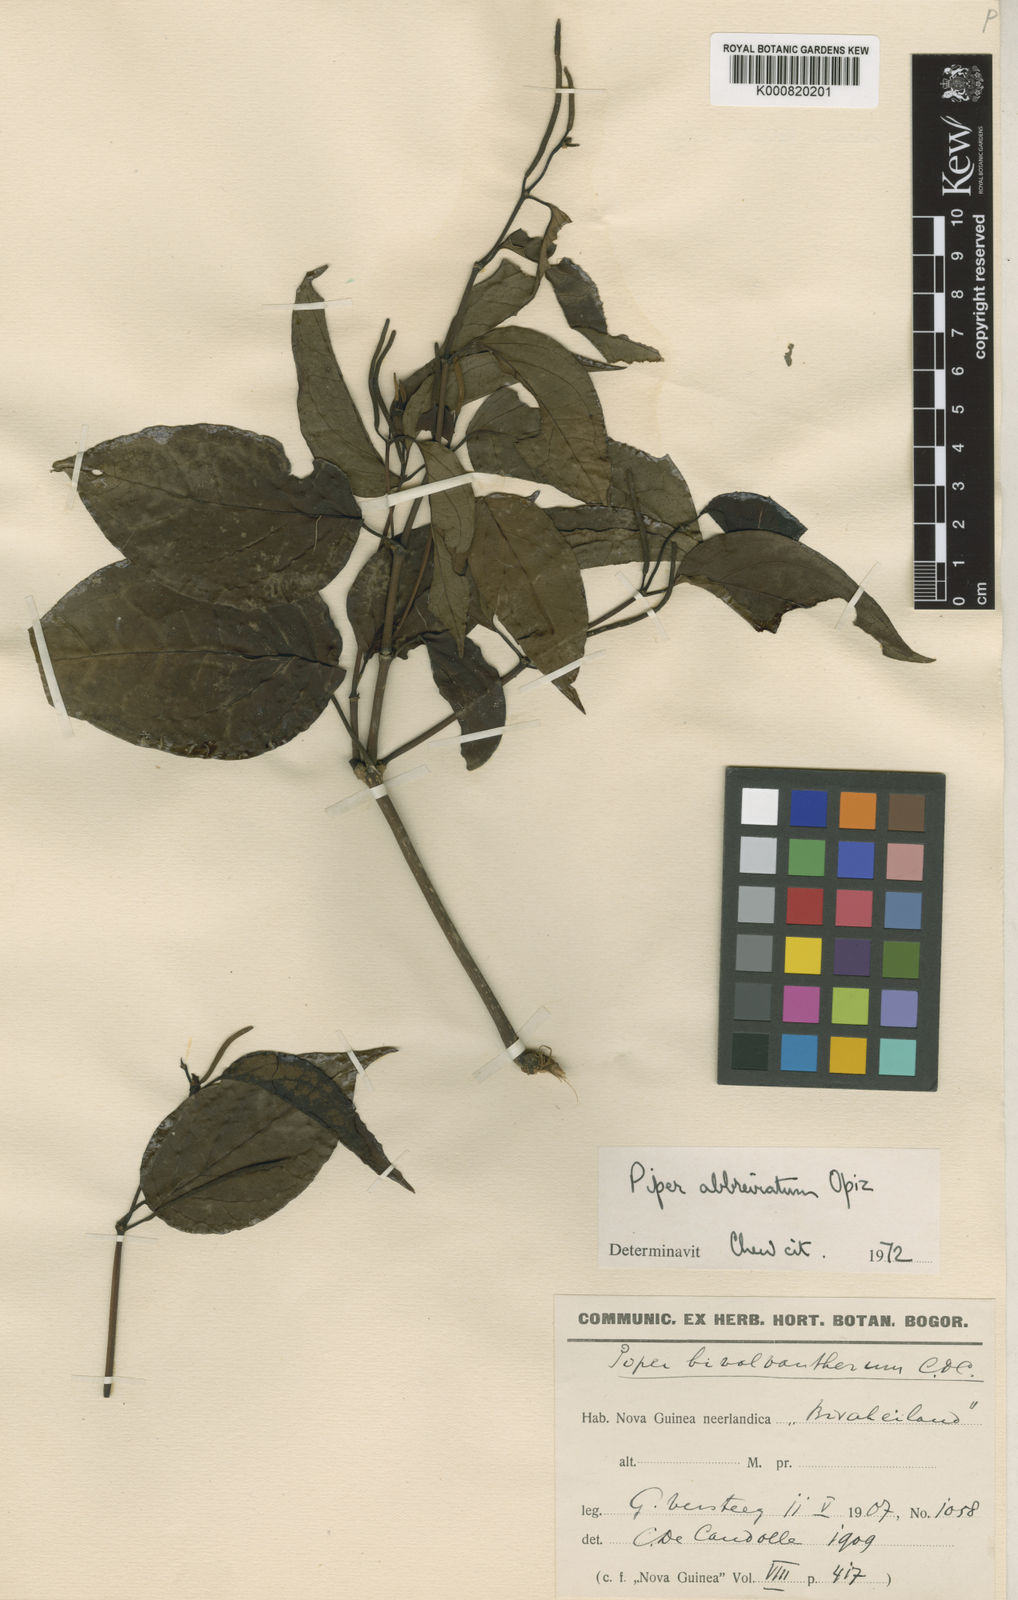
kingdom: Plantae
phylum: Tracheophyta
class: Magnoliopsida
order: Piperales
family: Piperaceae
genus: Piper
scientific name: Piper abbreviatum
